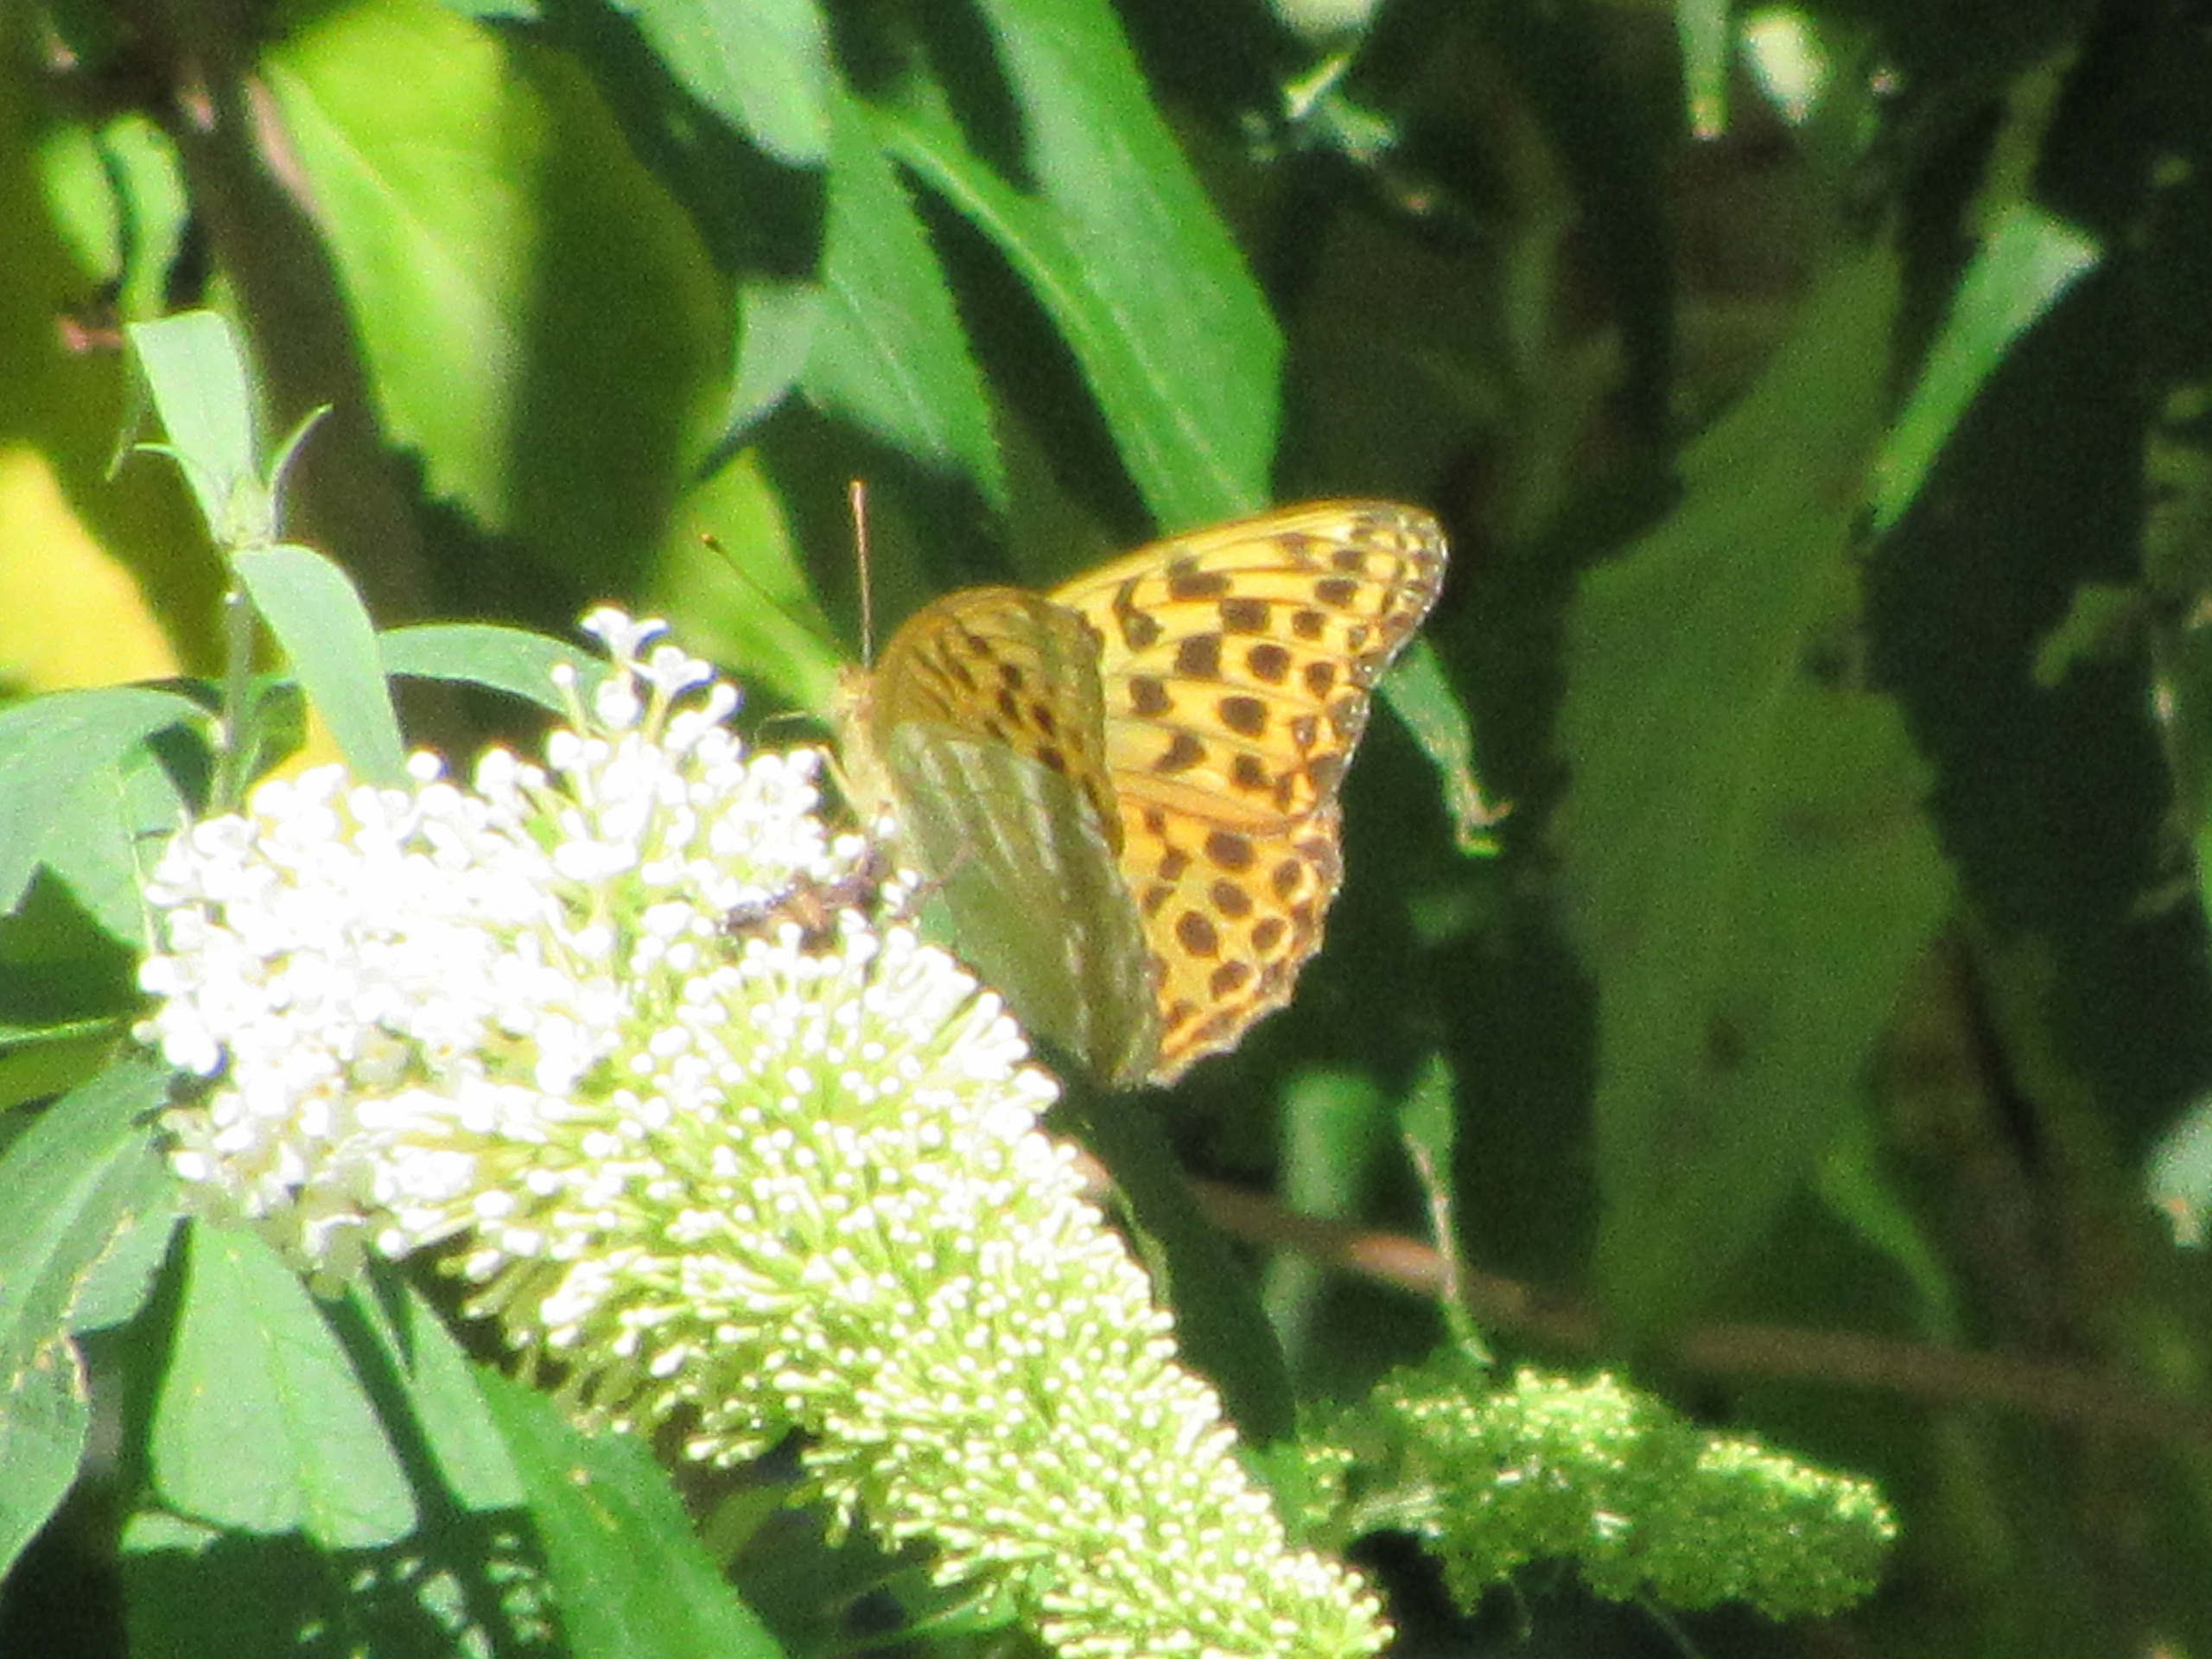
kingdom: Animalia
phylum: Arthropoda
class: Insecta
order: Lepidoptera
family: Nymphalidae
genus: Argynnis
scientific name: Argynnis paphia
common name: Kejserkåbe
